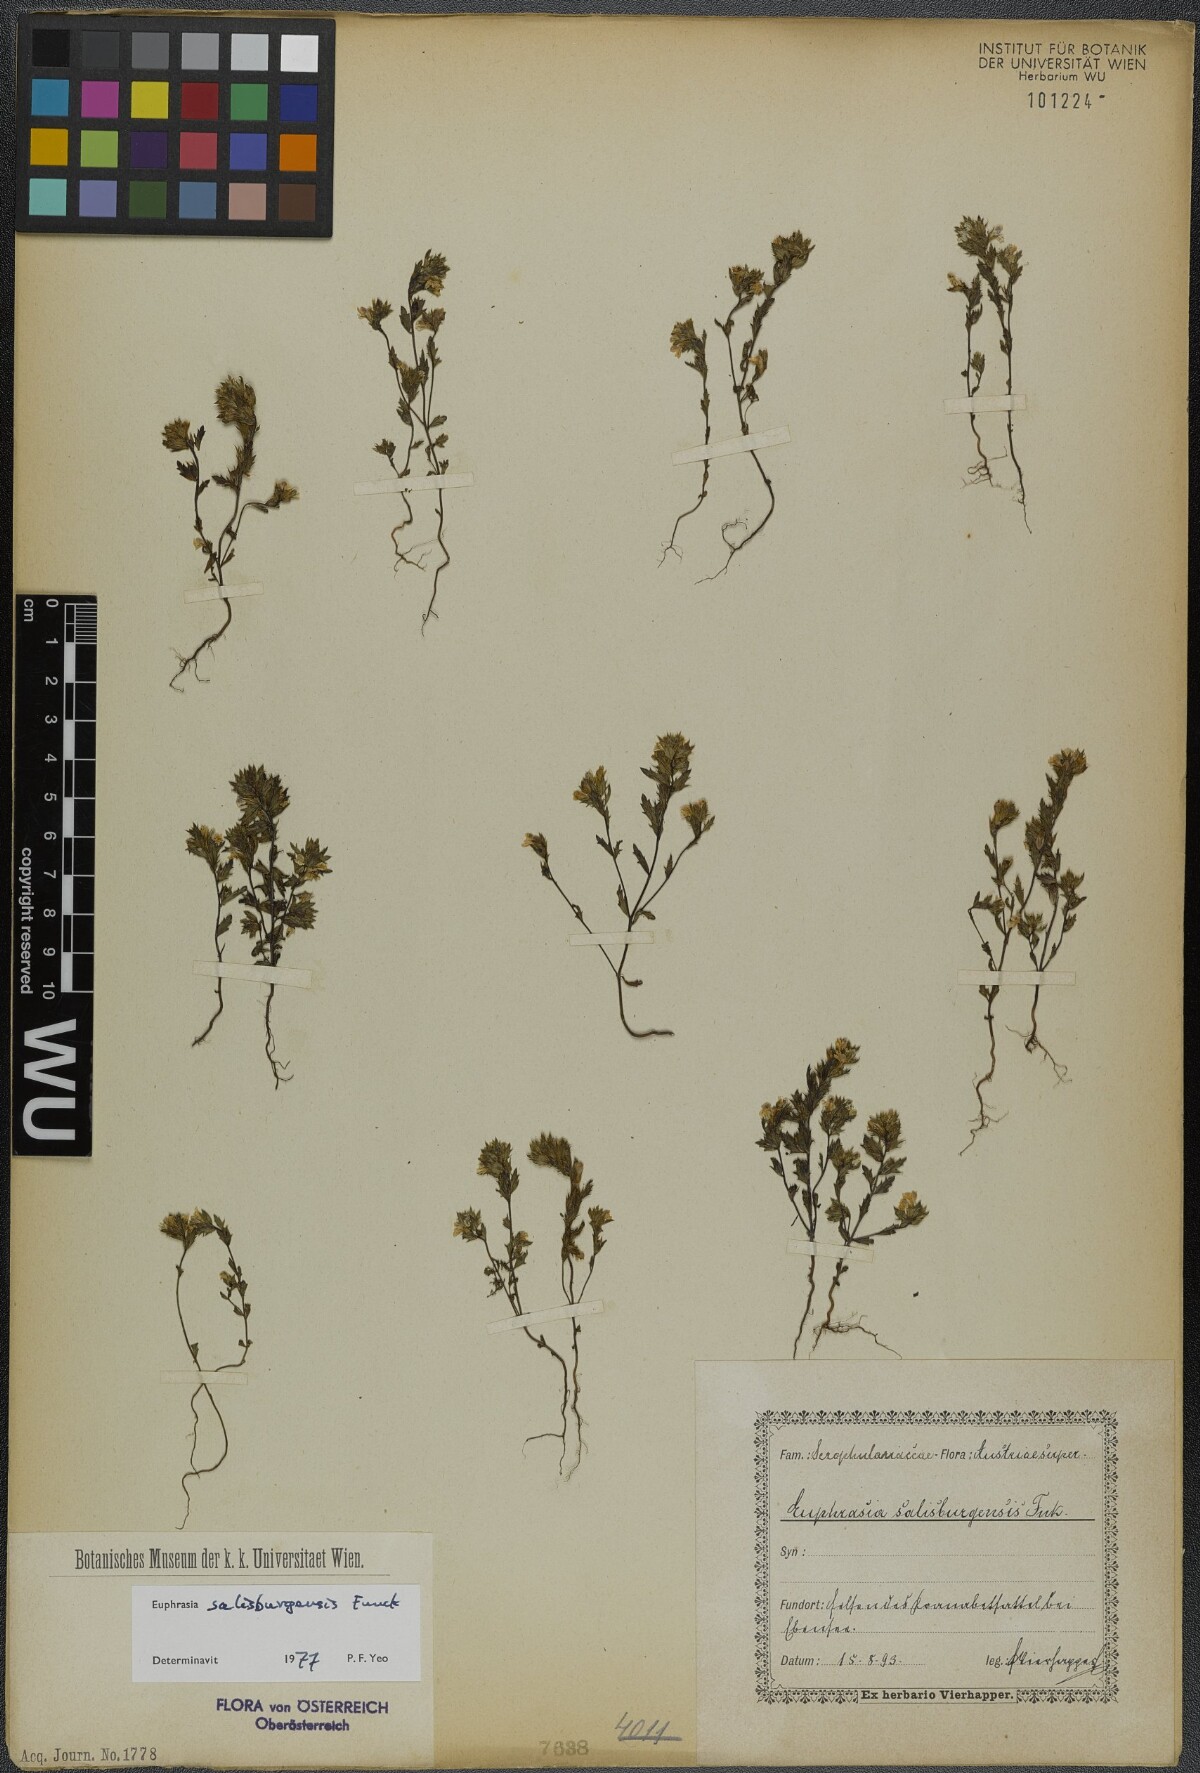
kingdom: Plantae
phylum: Tracheophyta
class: Magnoliopsida
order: Lamiales
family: Orobanchaceae
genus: Euphrasia
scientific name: Euphrasia salisburgensis
